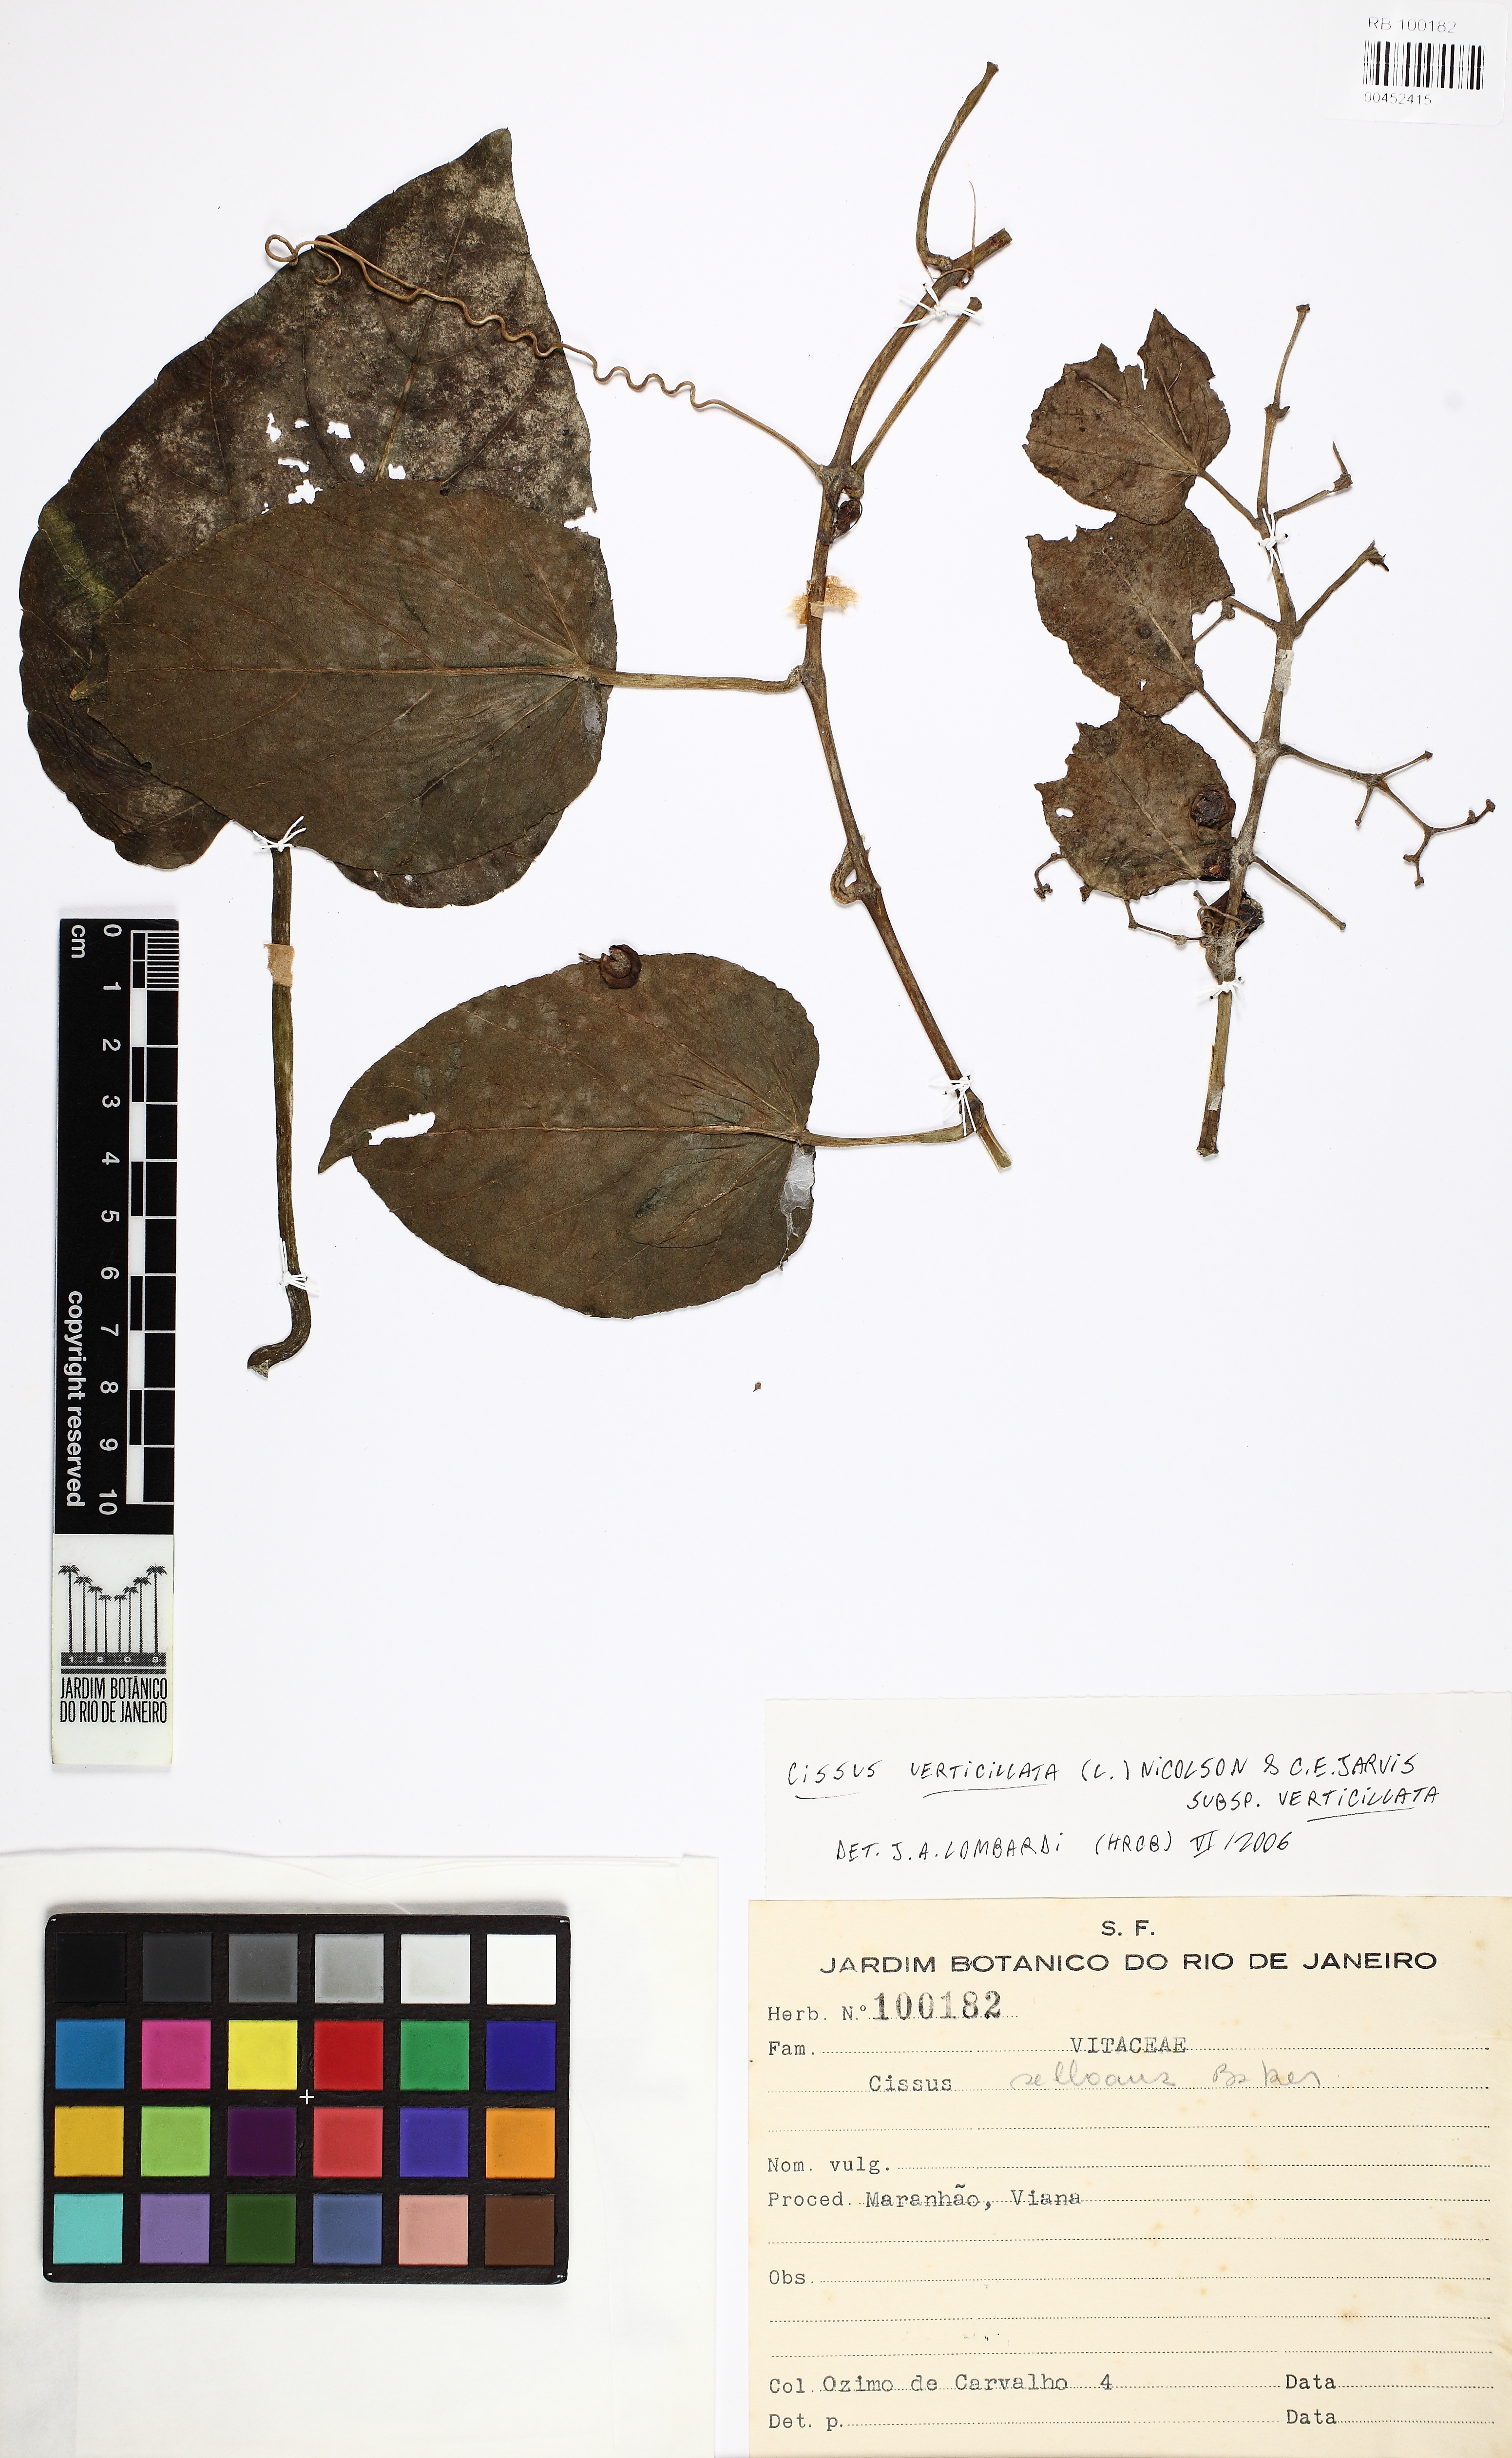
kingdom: Plantae
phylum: Tracheophyta
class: Magnoliopsida
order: Vitales
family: Vitaceae
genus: Cissus
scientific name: Cissus verticillata
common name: Princess vine
